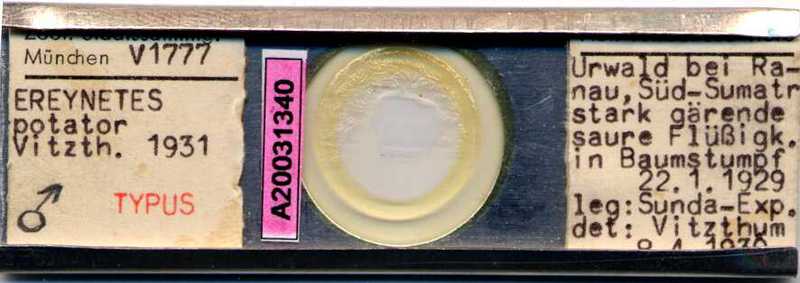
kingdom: Animalia
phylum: Arthropoda
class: Arachnida
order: Trombidiformes
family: Ereynetidae
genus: Ereynetes
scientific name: Ereynetes
